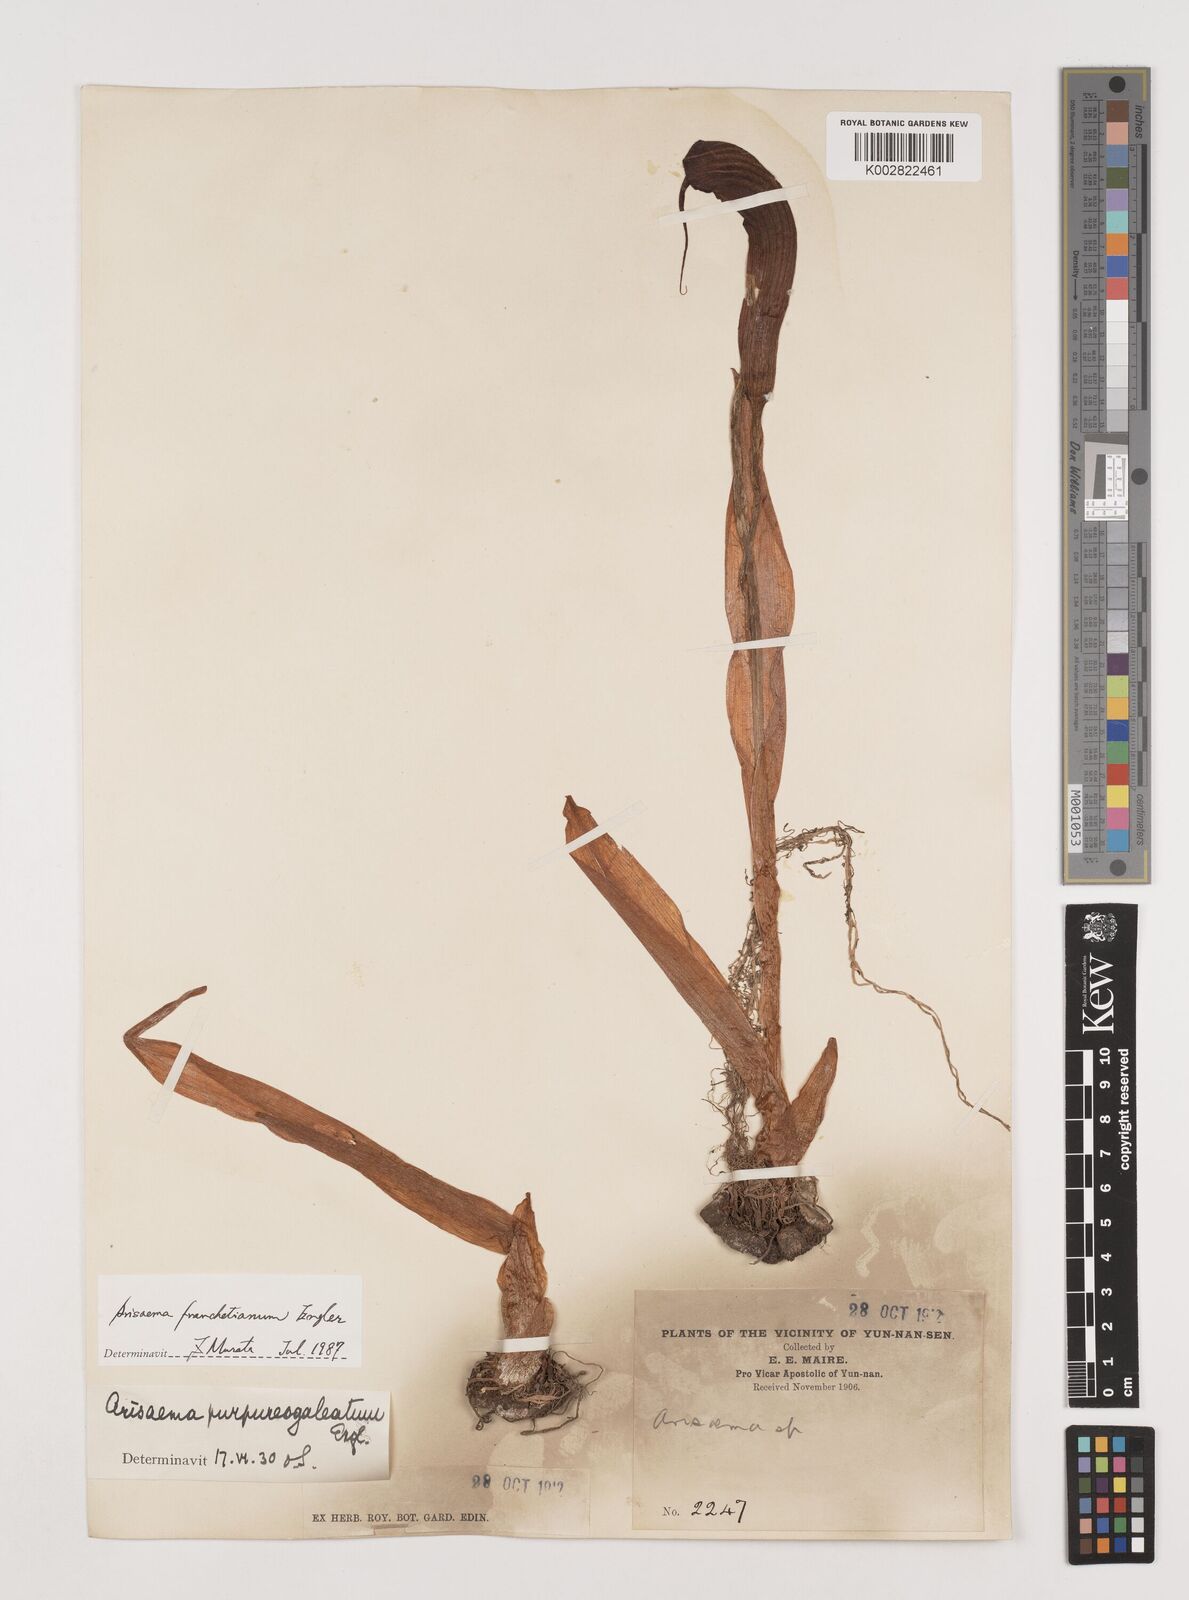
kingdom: Plantae
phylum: Tracheophyta
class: Liliopsida
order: Alismatales
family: Araceae
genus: Arisaema
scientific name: Arisaema franchetianum
